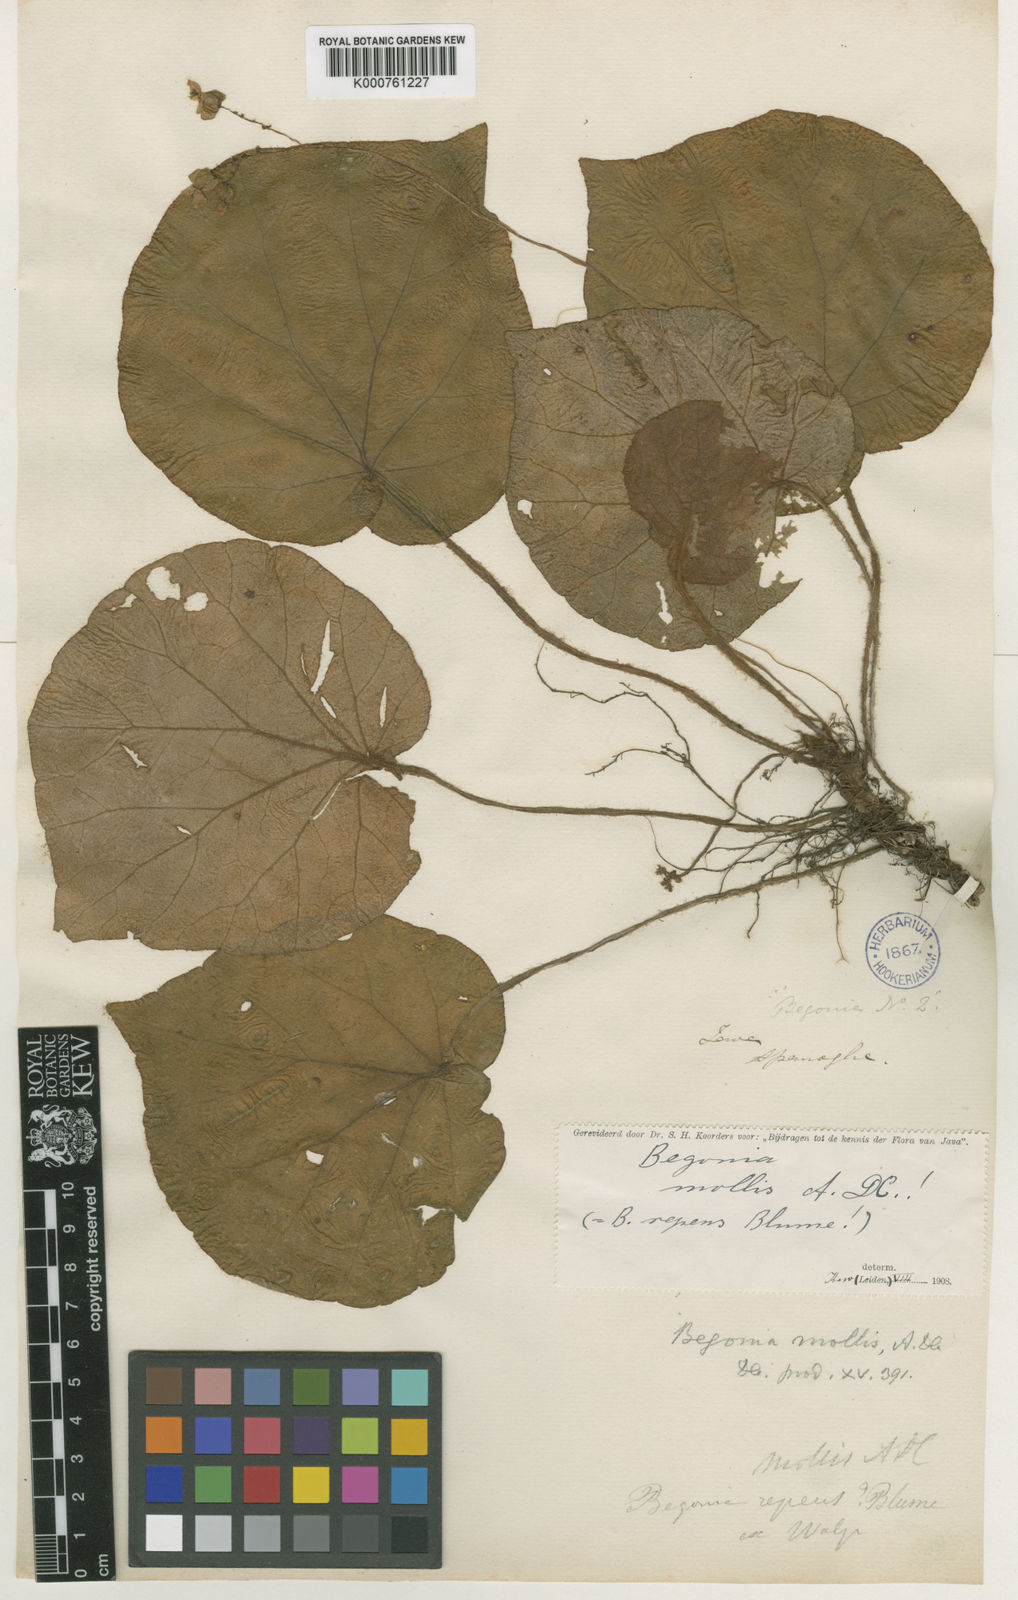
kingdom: Plantae
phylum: Tracheophyta
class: Magnoliopsida
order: Cucurbitales
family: Begoniaceae
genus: Begonia
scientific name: Begonia mollis
